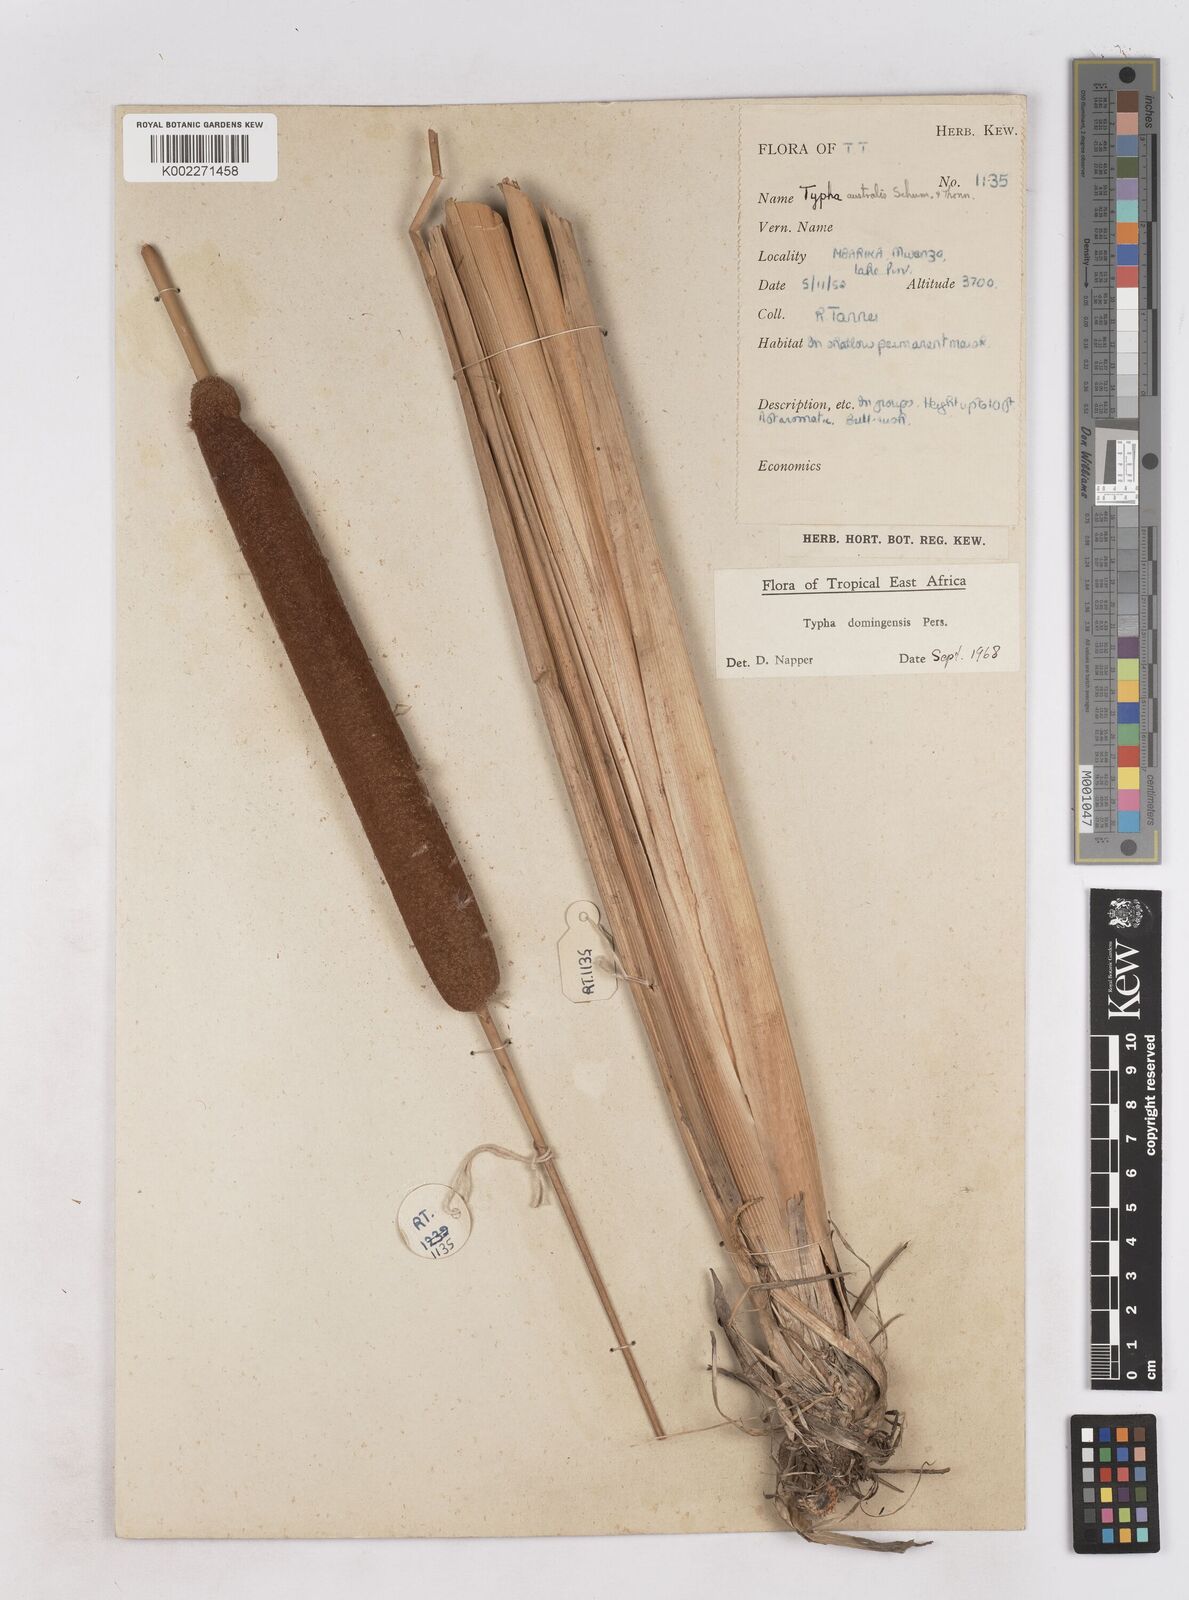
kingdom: Plantae
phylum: Tracheophyta
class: Liliopsida
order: Poales
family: Typhaceae
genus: Typha
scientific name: Typha domingensis
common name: Southern cattail
